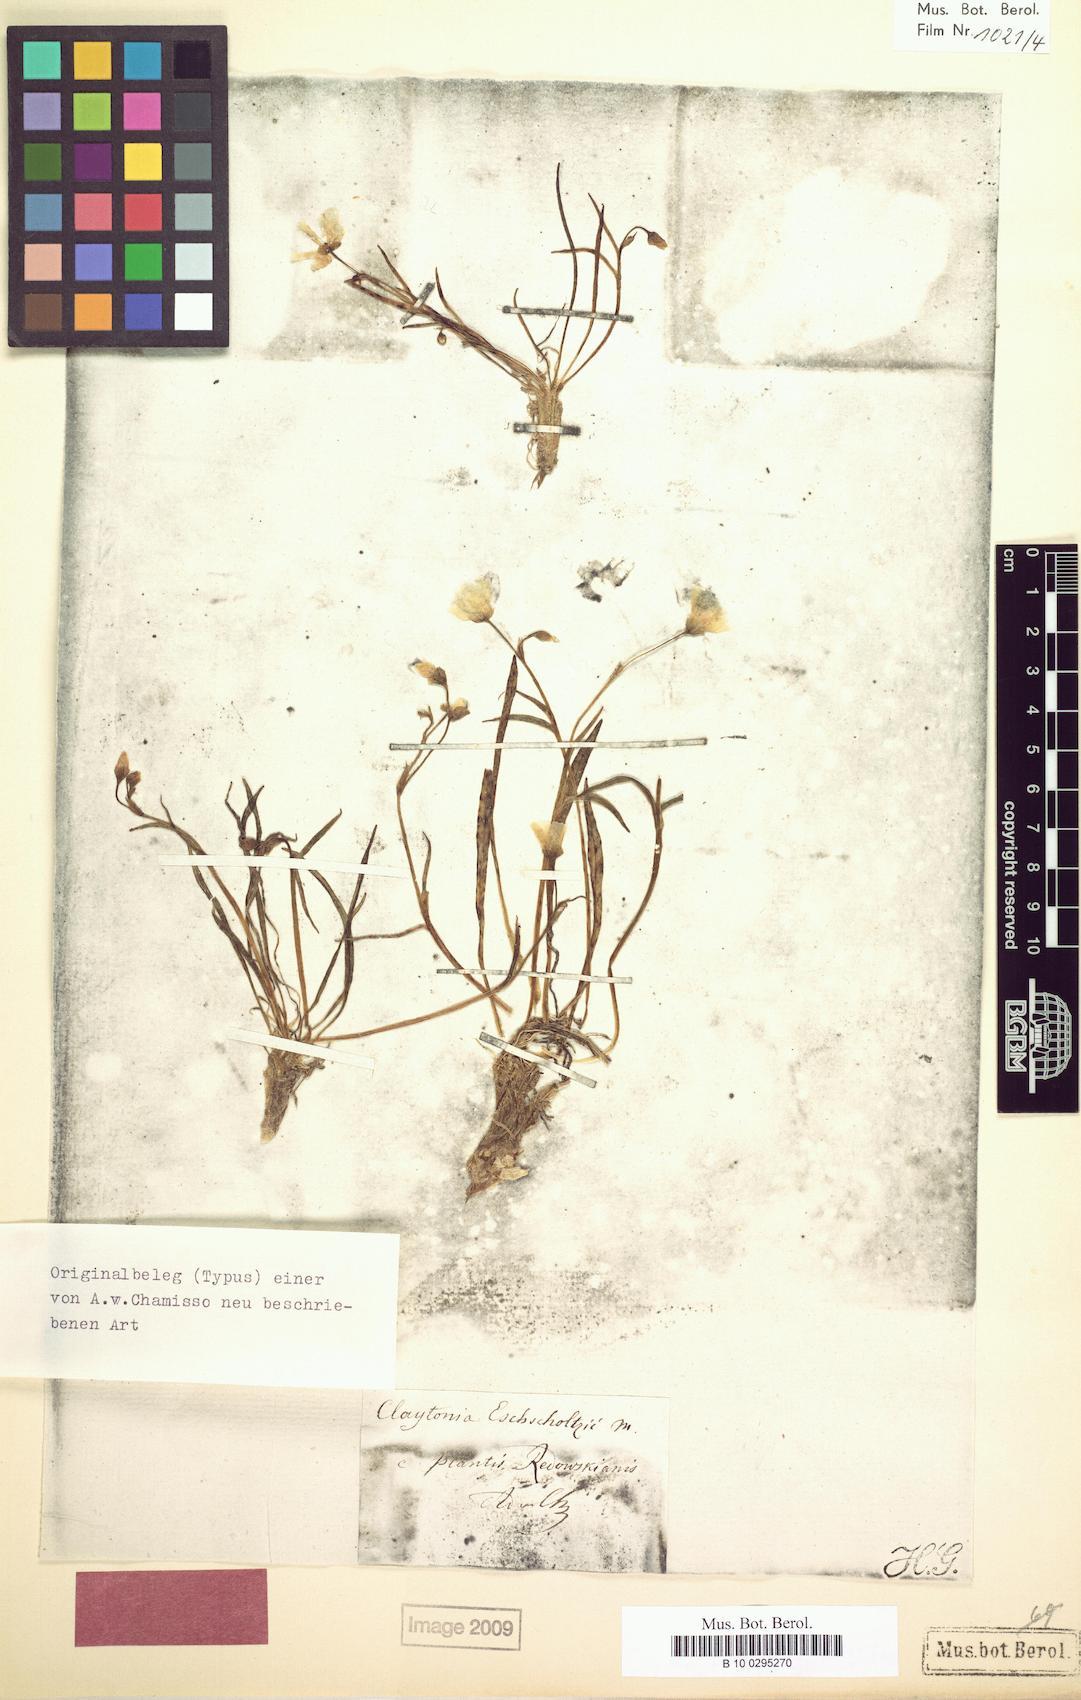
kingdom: Plantae
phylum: Tracheophyta
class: Magnoliopsida
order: Caryophyllales
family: Montiaceae
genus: Claytonia
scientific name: Claytonia acutifolia
